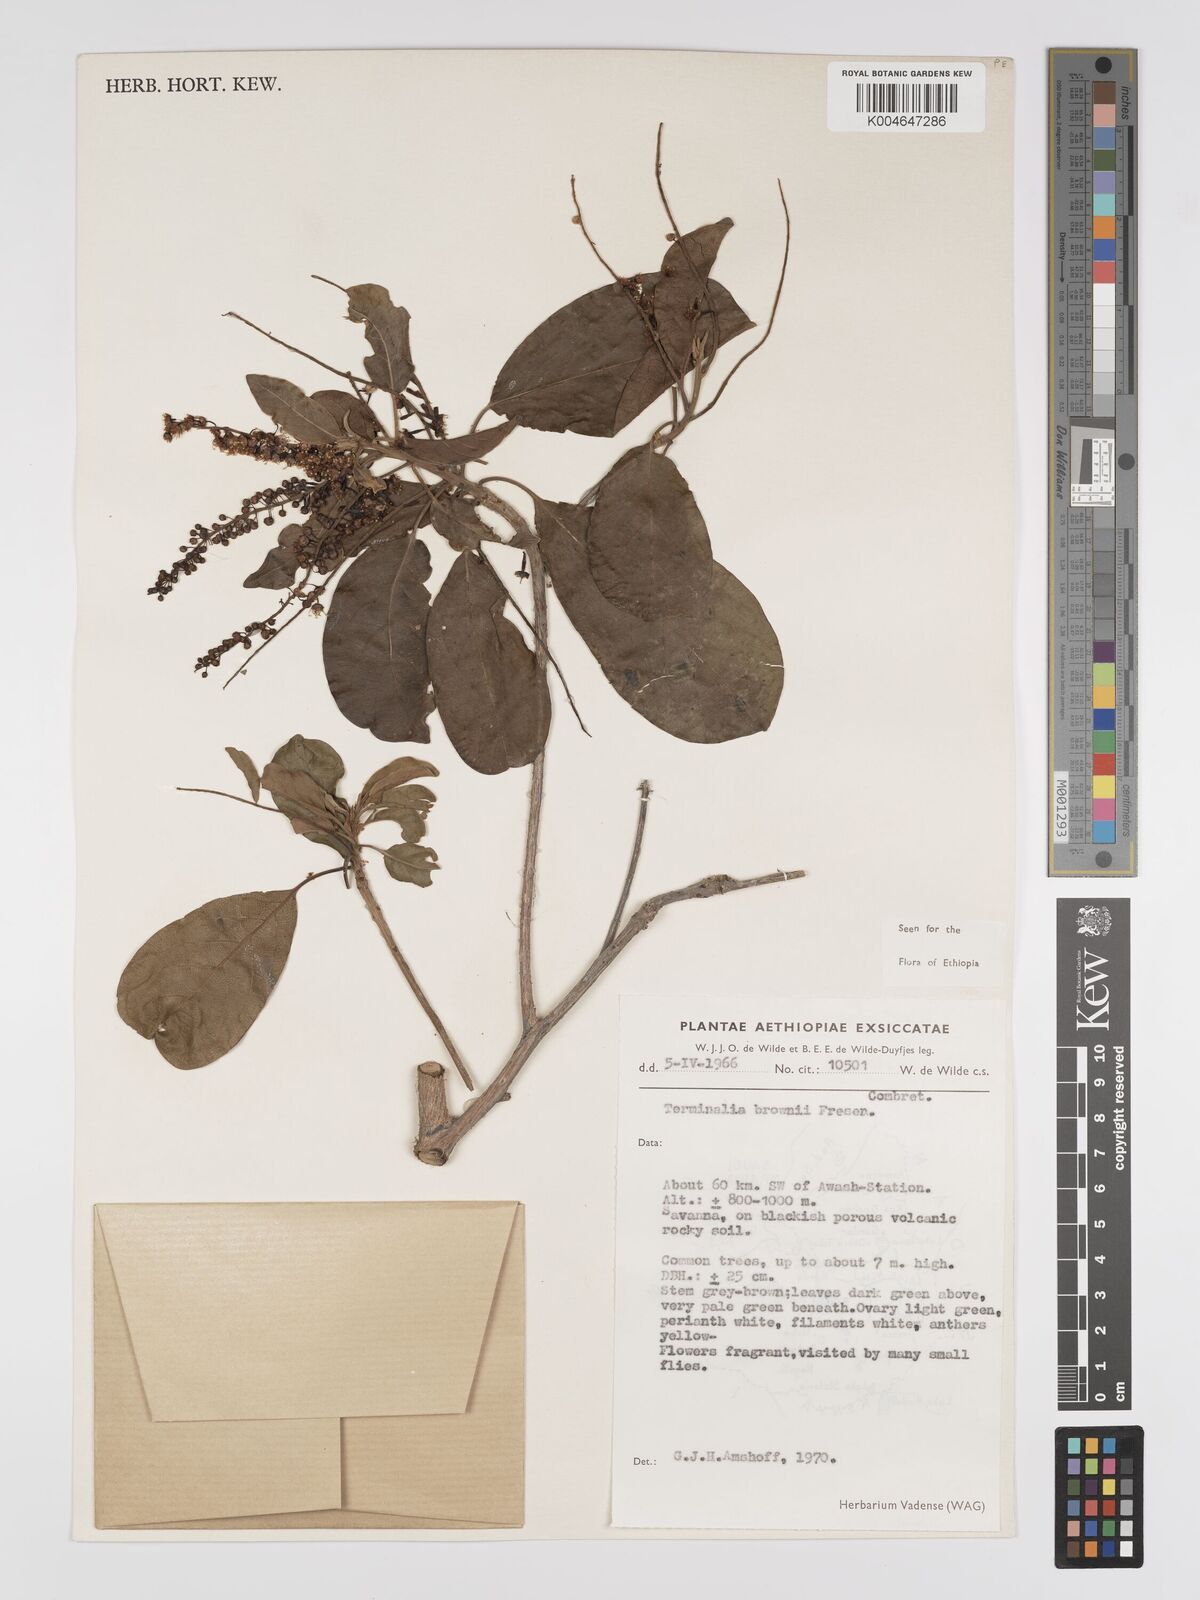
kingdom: Plantae
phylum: Tracheophyta
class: Magnoliopsida
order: Myrtales
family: Combretaceae
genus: Terminalia
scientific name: Terminalia brownii
